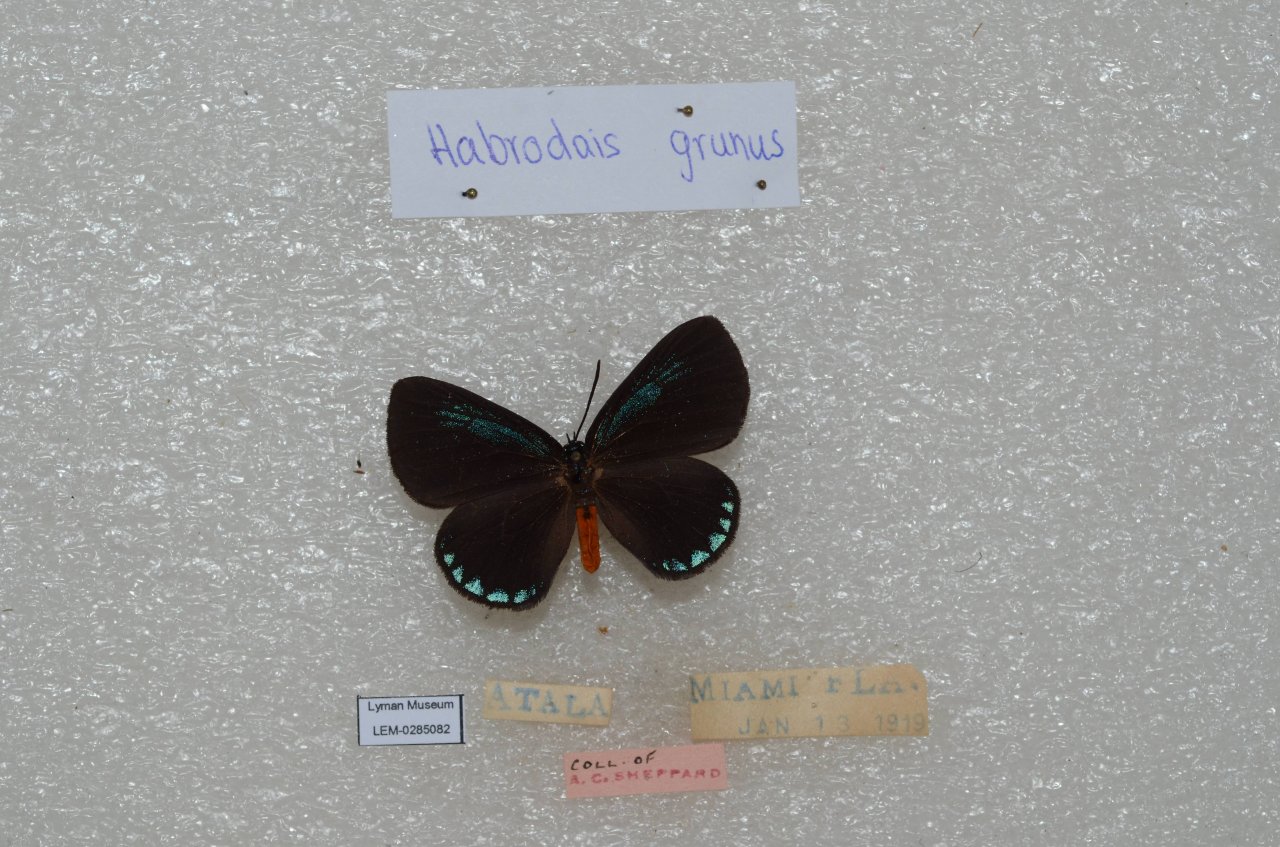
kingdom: Animalia
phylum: Arthropoda
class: Insecta
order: Lepidoptera
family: Lycaenidae
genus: Eumaeus
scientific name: Eumaeus atala
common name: Atala
